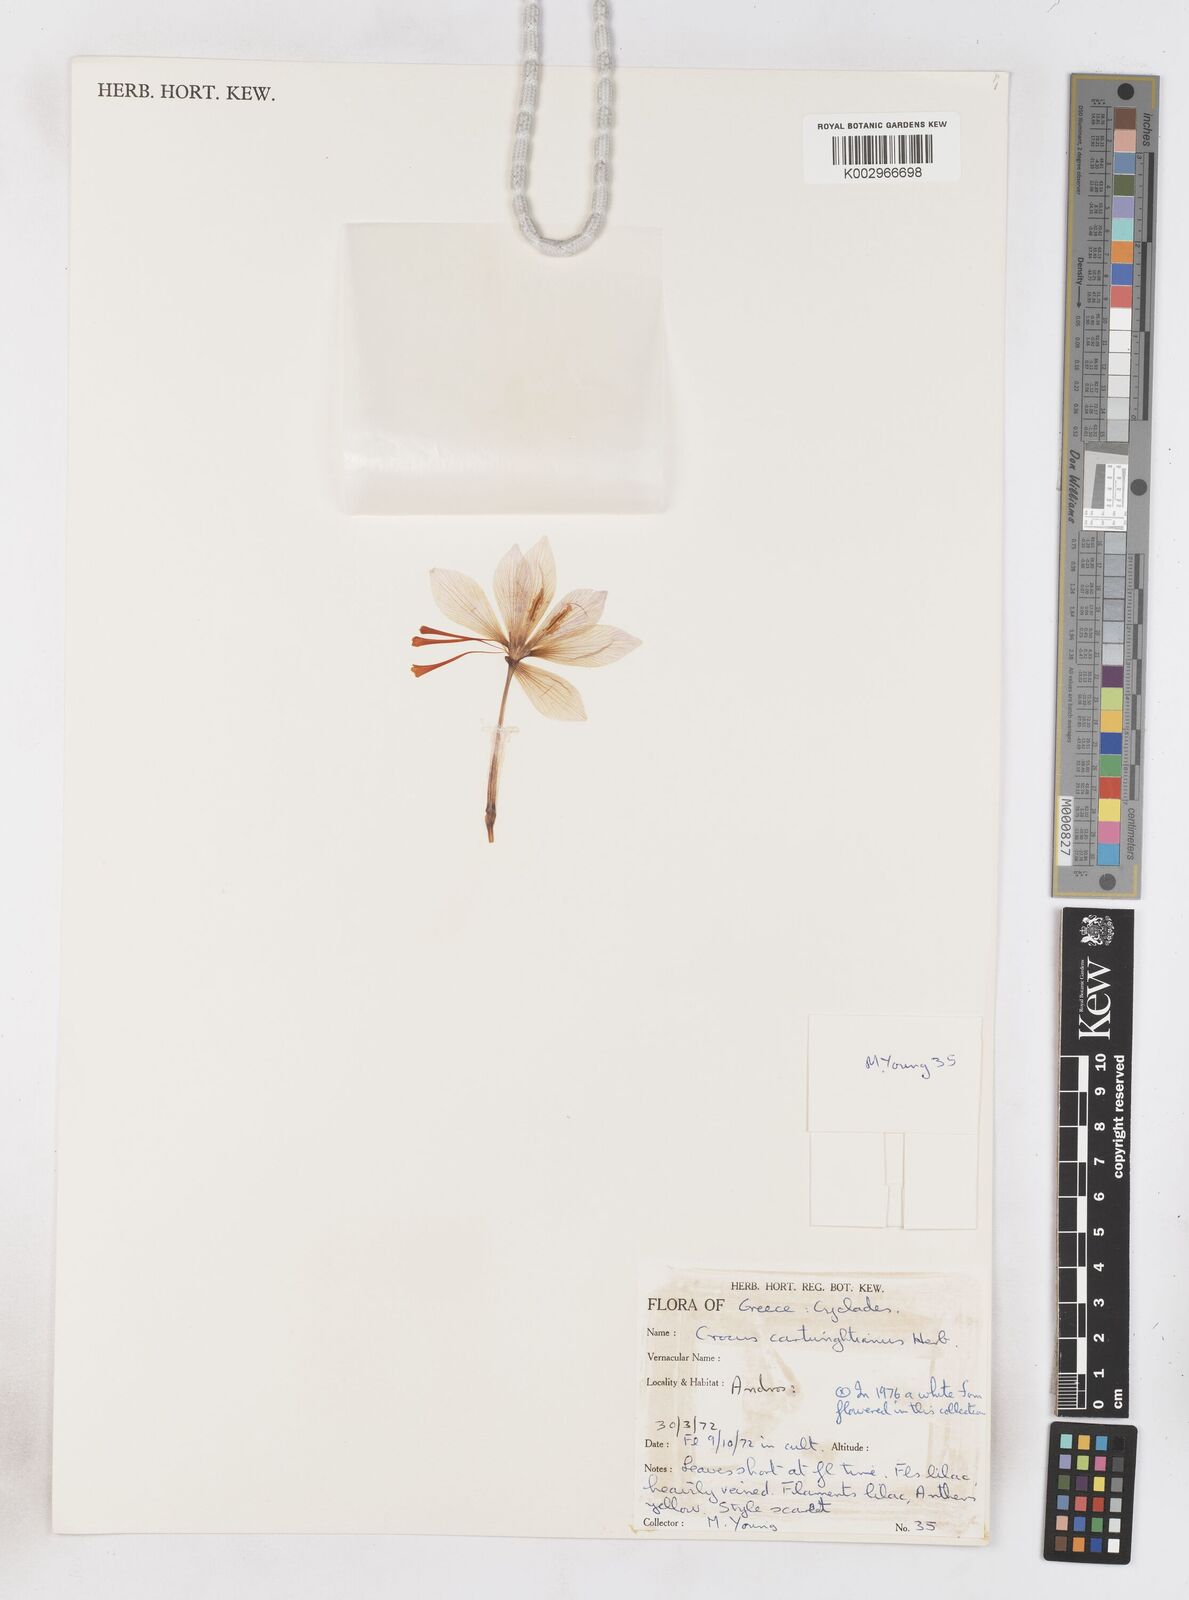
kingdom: Plantae
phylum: Tracheophyta
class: Liliopsida
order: Asparagales
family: Iridaceae
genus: Crocus
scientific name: Crocus cartwrightianus
